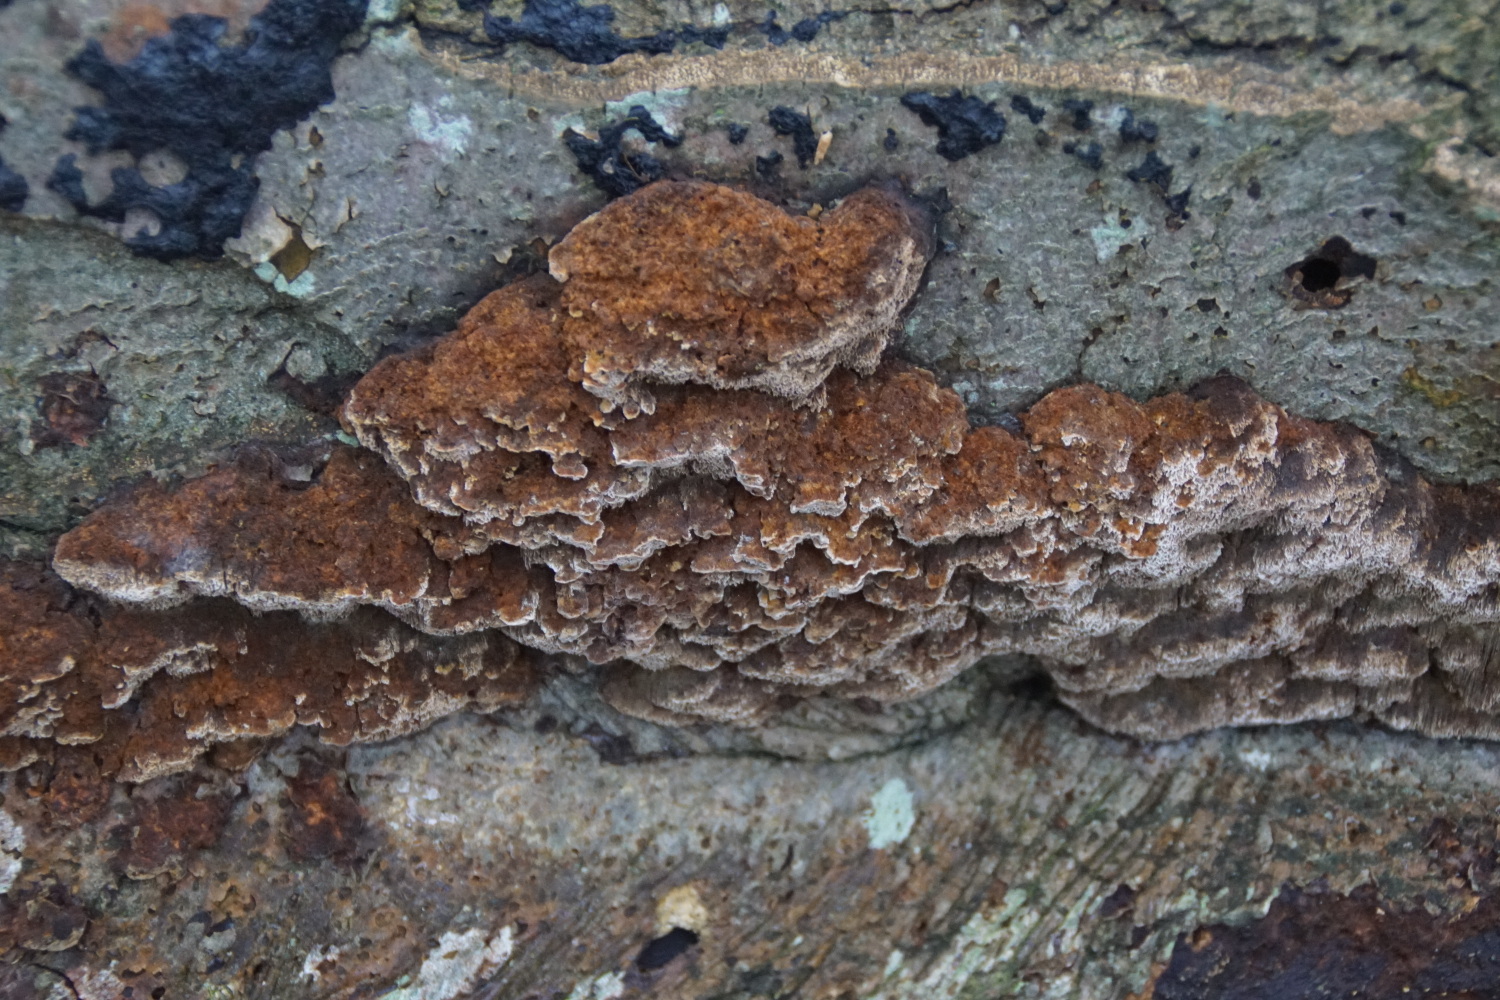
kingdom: Fungi
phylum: Basidiomycota
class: Agaricomycetes
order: Hymenochaetales
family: Hymenochaetaceae
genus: Mensularia
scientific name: Mensularia nodulosa
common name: bøge-spejlporesvamp
